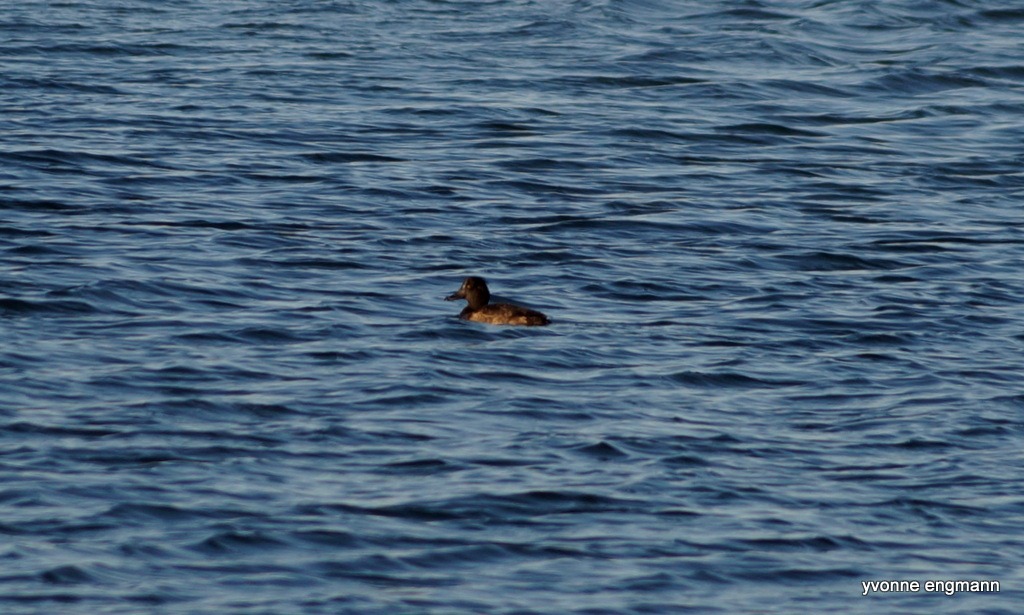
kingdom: Animalia
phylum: Chordata
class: Aves
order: Anseriformes
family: Anatidae
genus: Aythya
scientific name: Aythya fuligula
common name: Troldand
